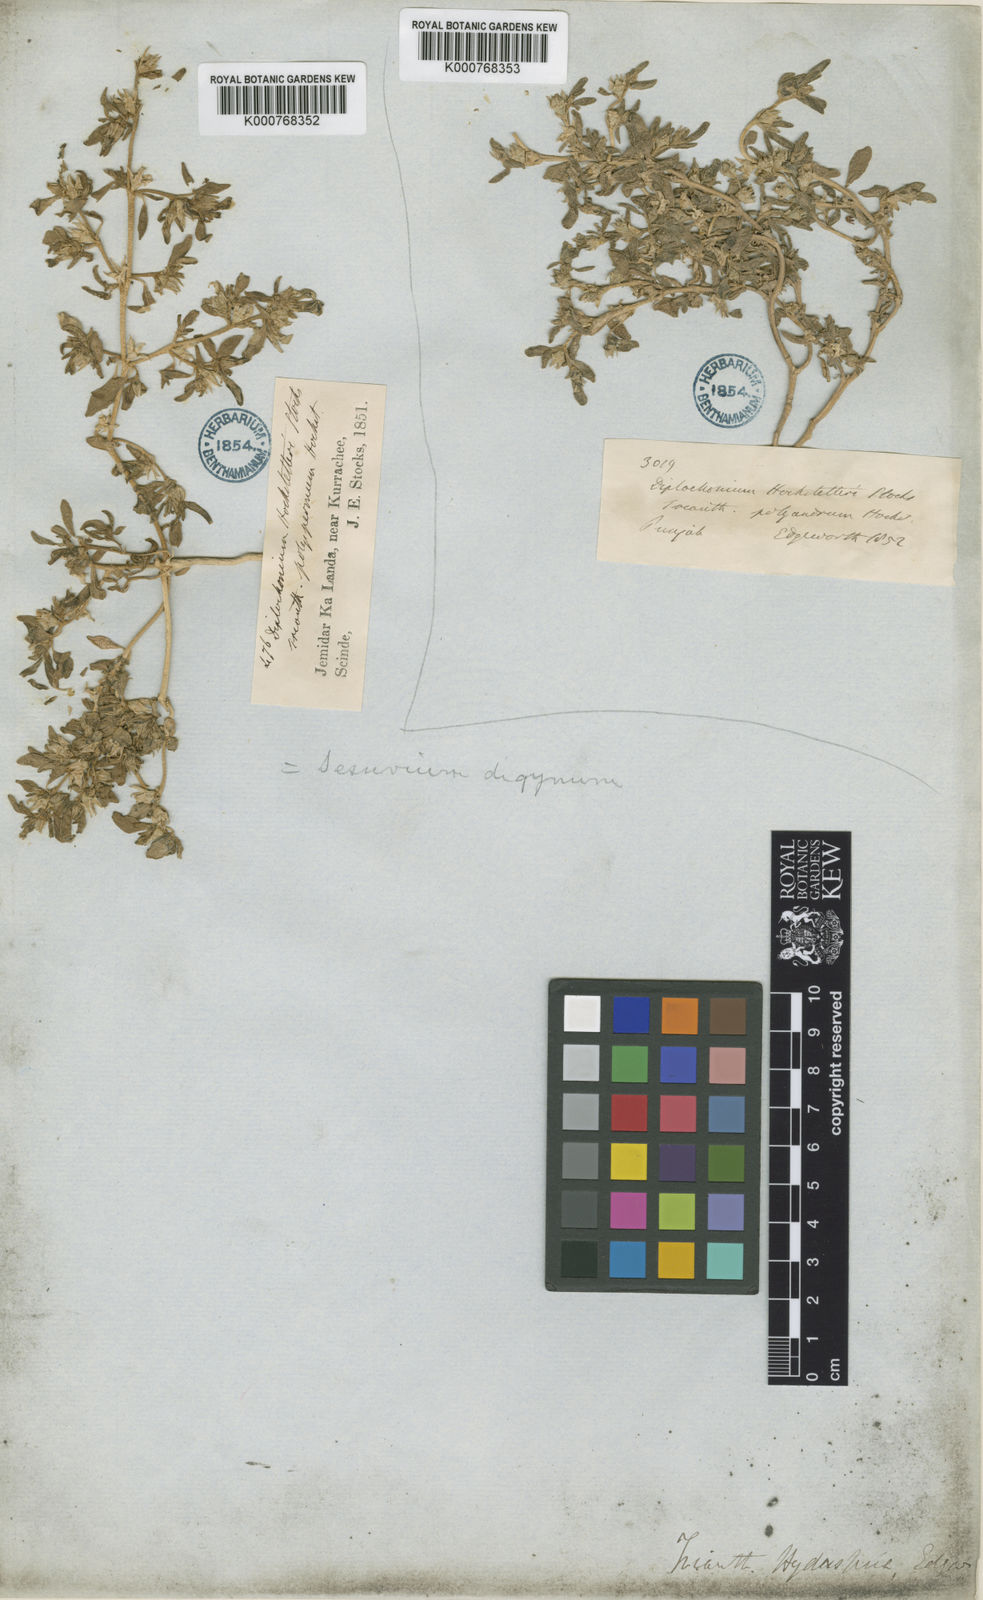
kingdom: Plantae
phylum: Tracheophyta
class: Magnoliopsida
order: Caryophyllales
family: Aizoaceae
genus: Sesuvium
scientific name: Sesuvium sesuvioides
